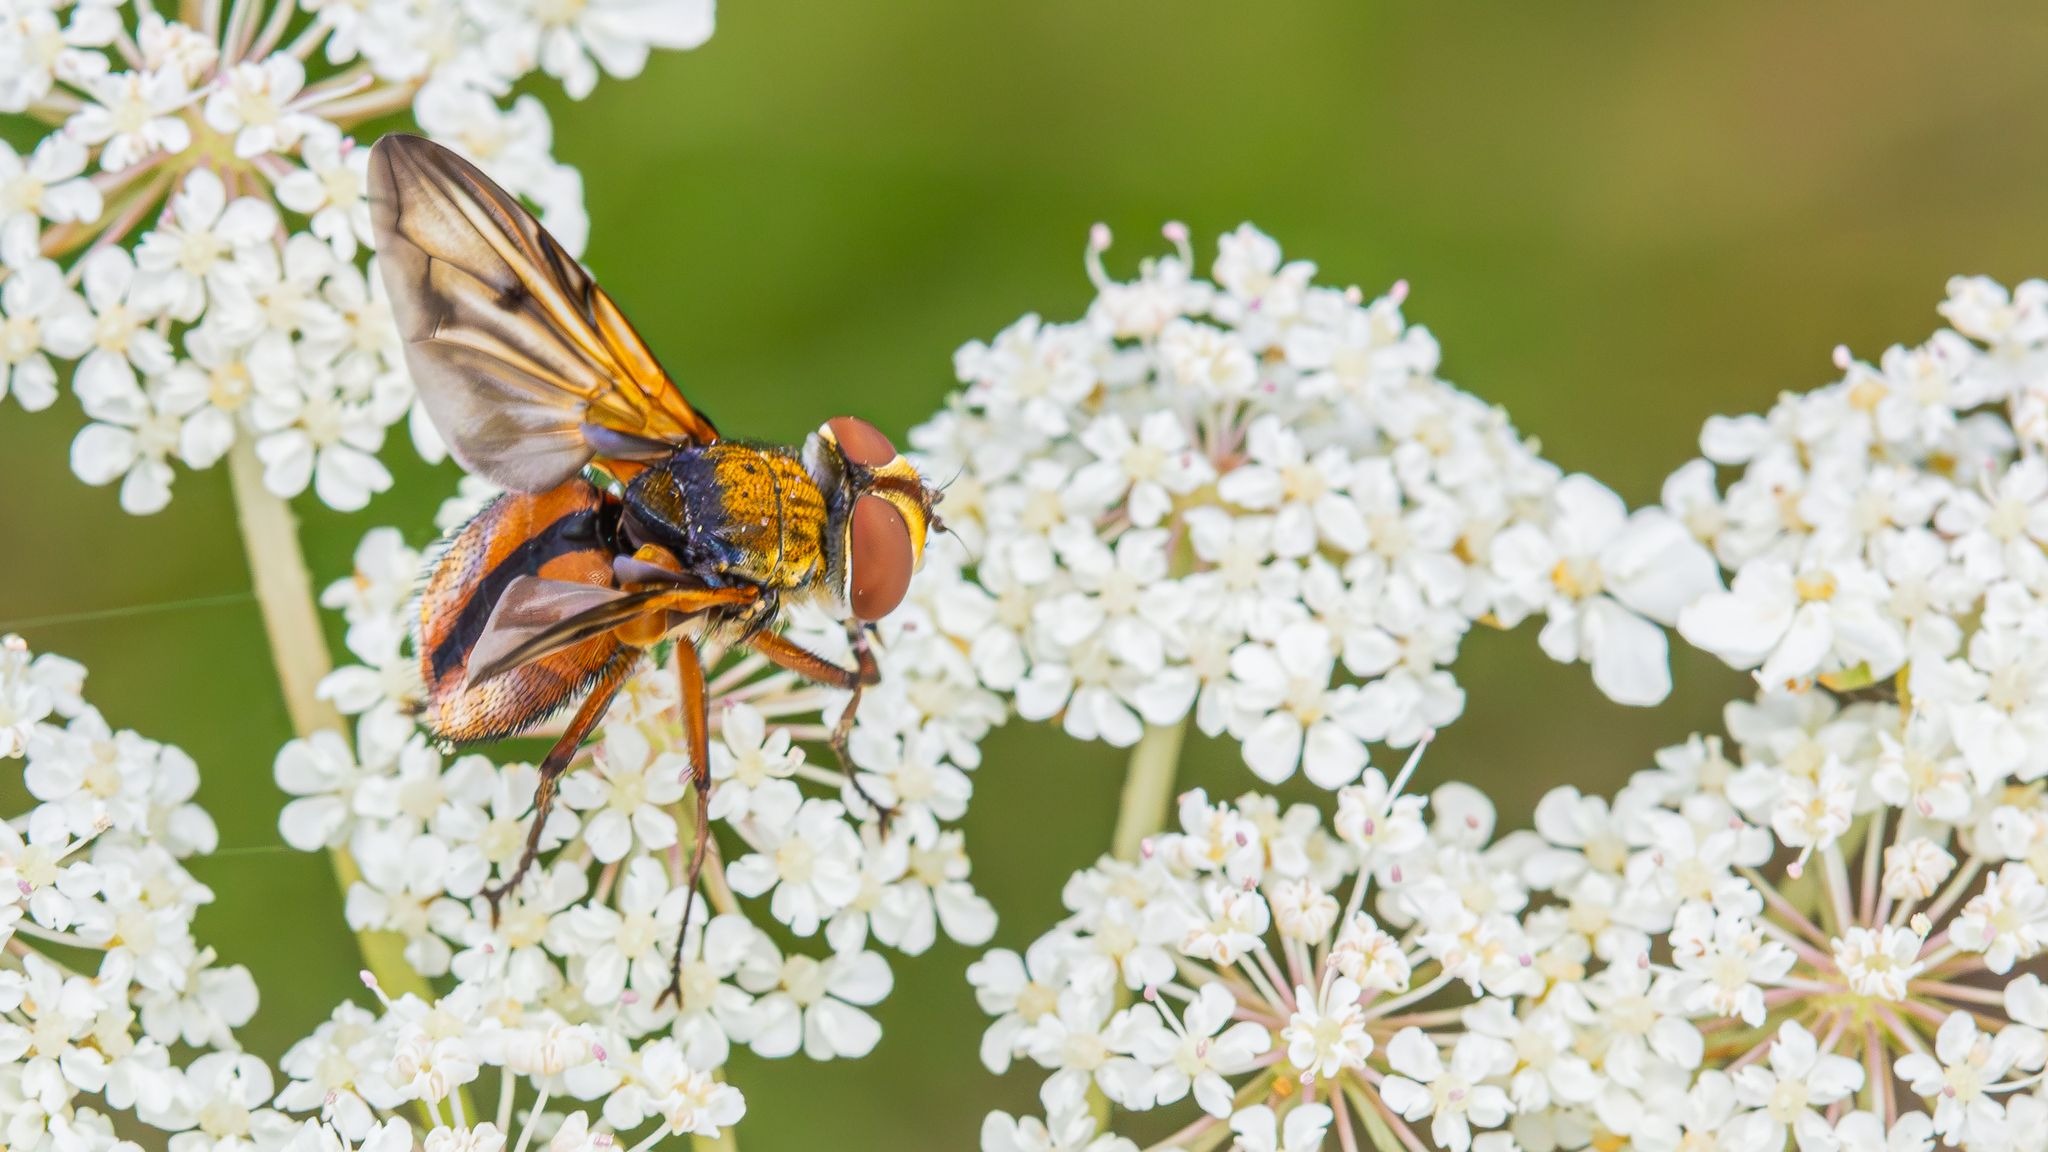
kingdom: Animalia
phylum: Arthropoda
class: Insecta
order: Diptera
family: Tachinidae
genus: Ectophasia
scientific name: Ectophasia crassipennis
